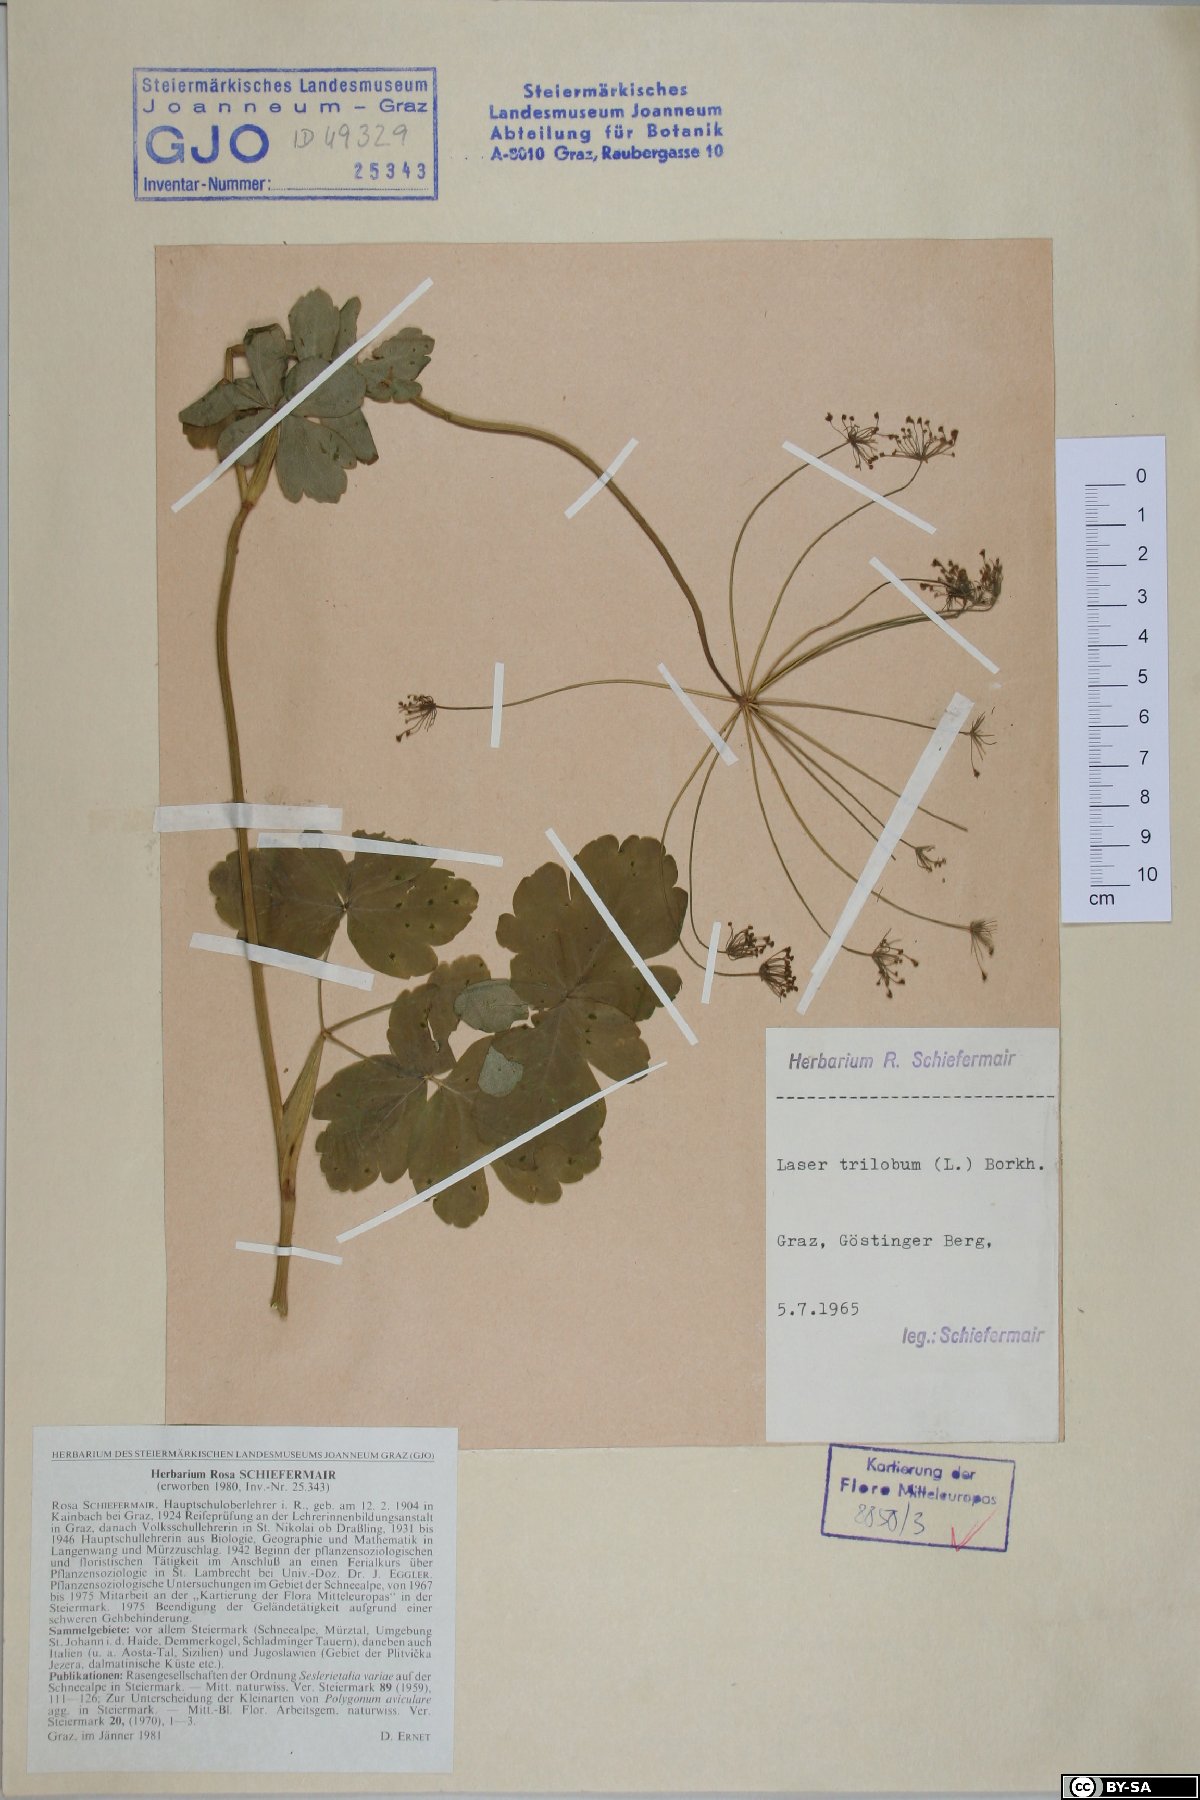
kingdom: Plantae
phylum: Tracheophyta
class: Magnoliopsida
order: Apiales
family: Apiaceae
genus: Laser
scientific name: Laser trilobum
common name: Laser
